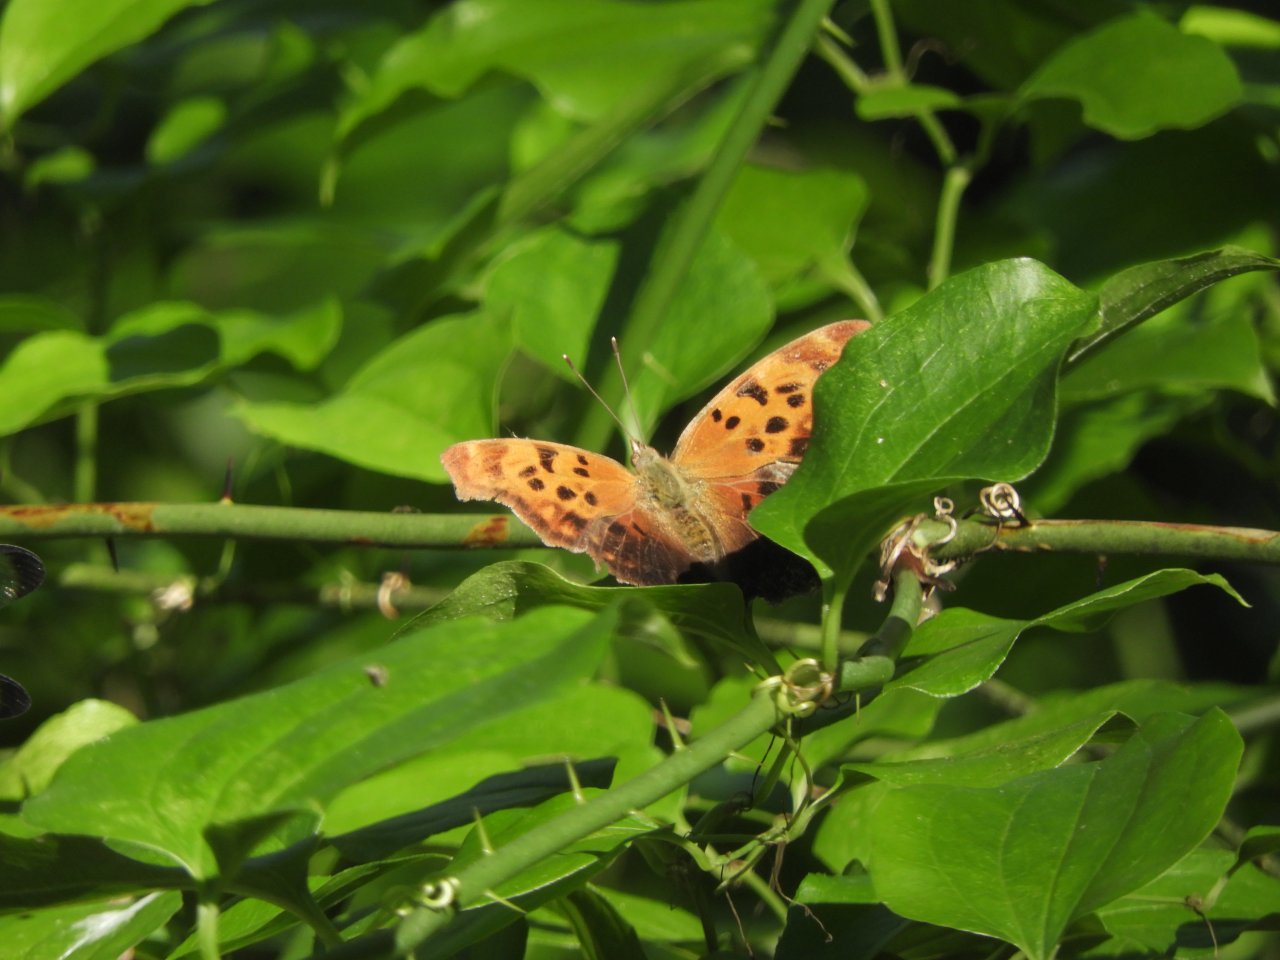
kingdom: Animalia
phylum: Arthropoda
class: Insecta
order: Lepidoptera
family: Nymphalidae
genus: Polygonia
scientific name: Polygonia comma
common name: Eastern Comma
